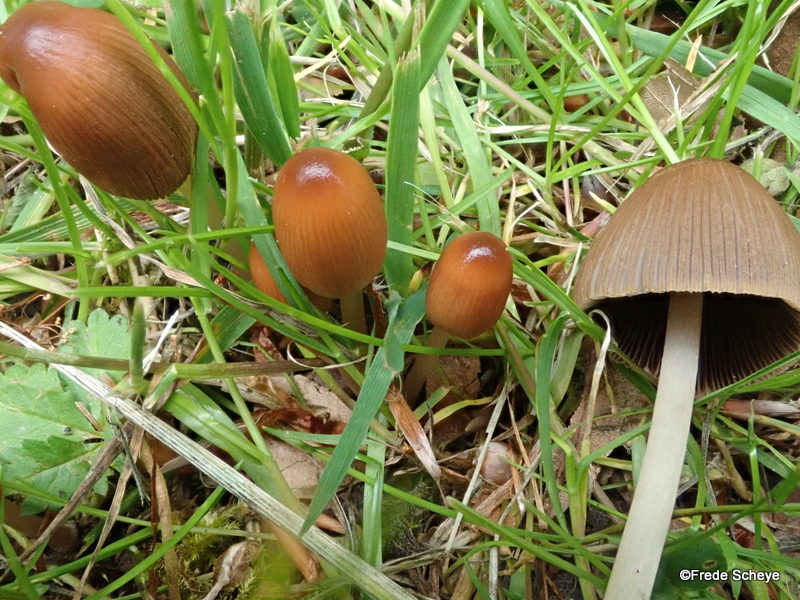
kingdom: Fungi
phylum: Basidiomycota
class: Agaricomycetes
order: Agaricales
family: Psathyrellaceae
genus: Parasola
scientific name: Parasola auricoma
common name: hansens hjulhat
